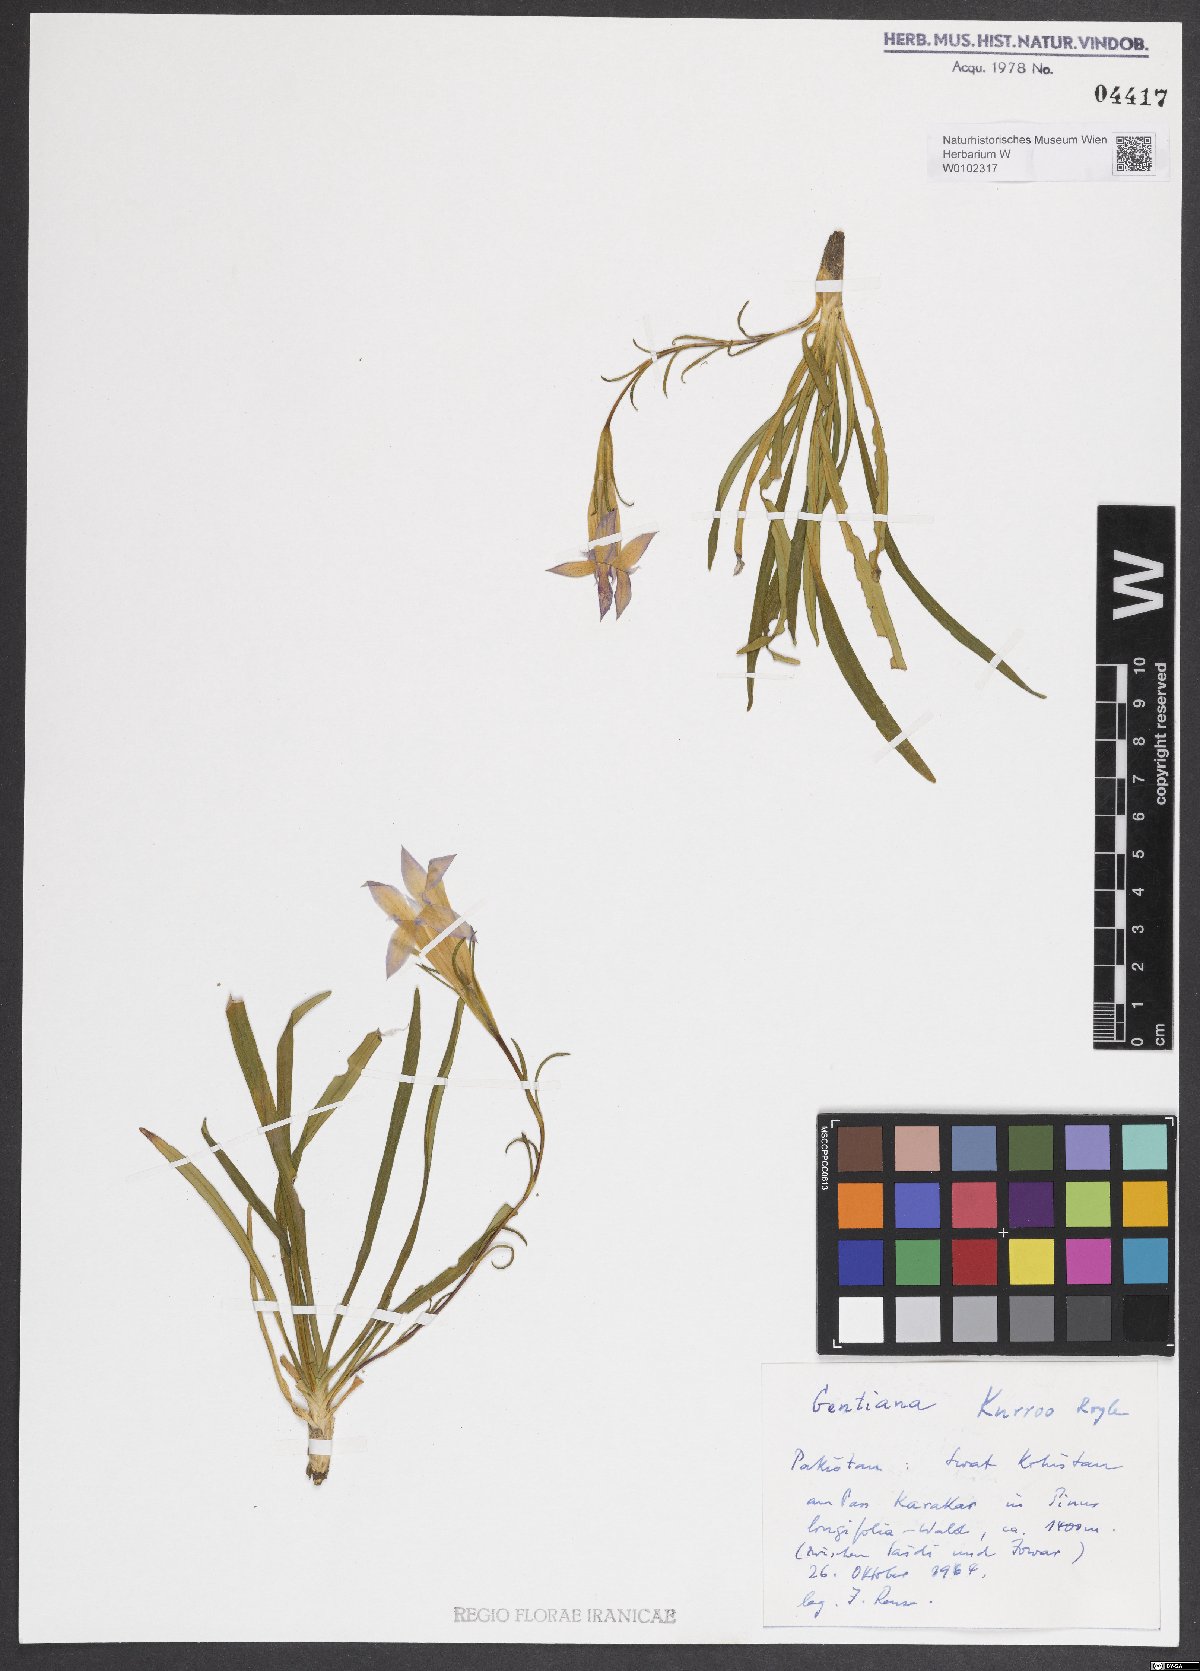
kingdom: Plantae
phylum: Tracheophyta
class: Magnoliopsida
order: Gentianales
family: Gentianaceae
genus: Gentiana
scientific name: Gentiana kurroo
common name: Himalayan gentian
